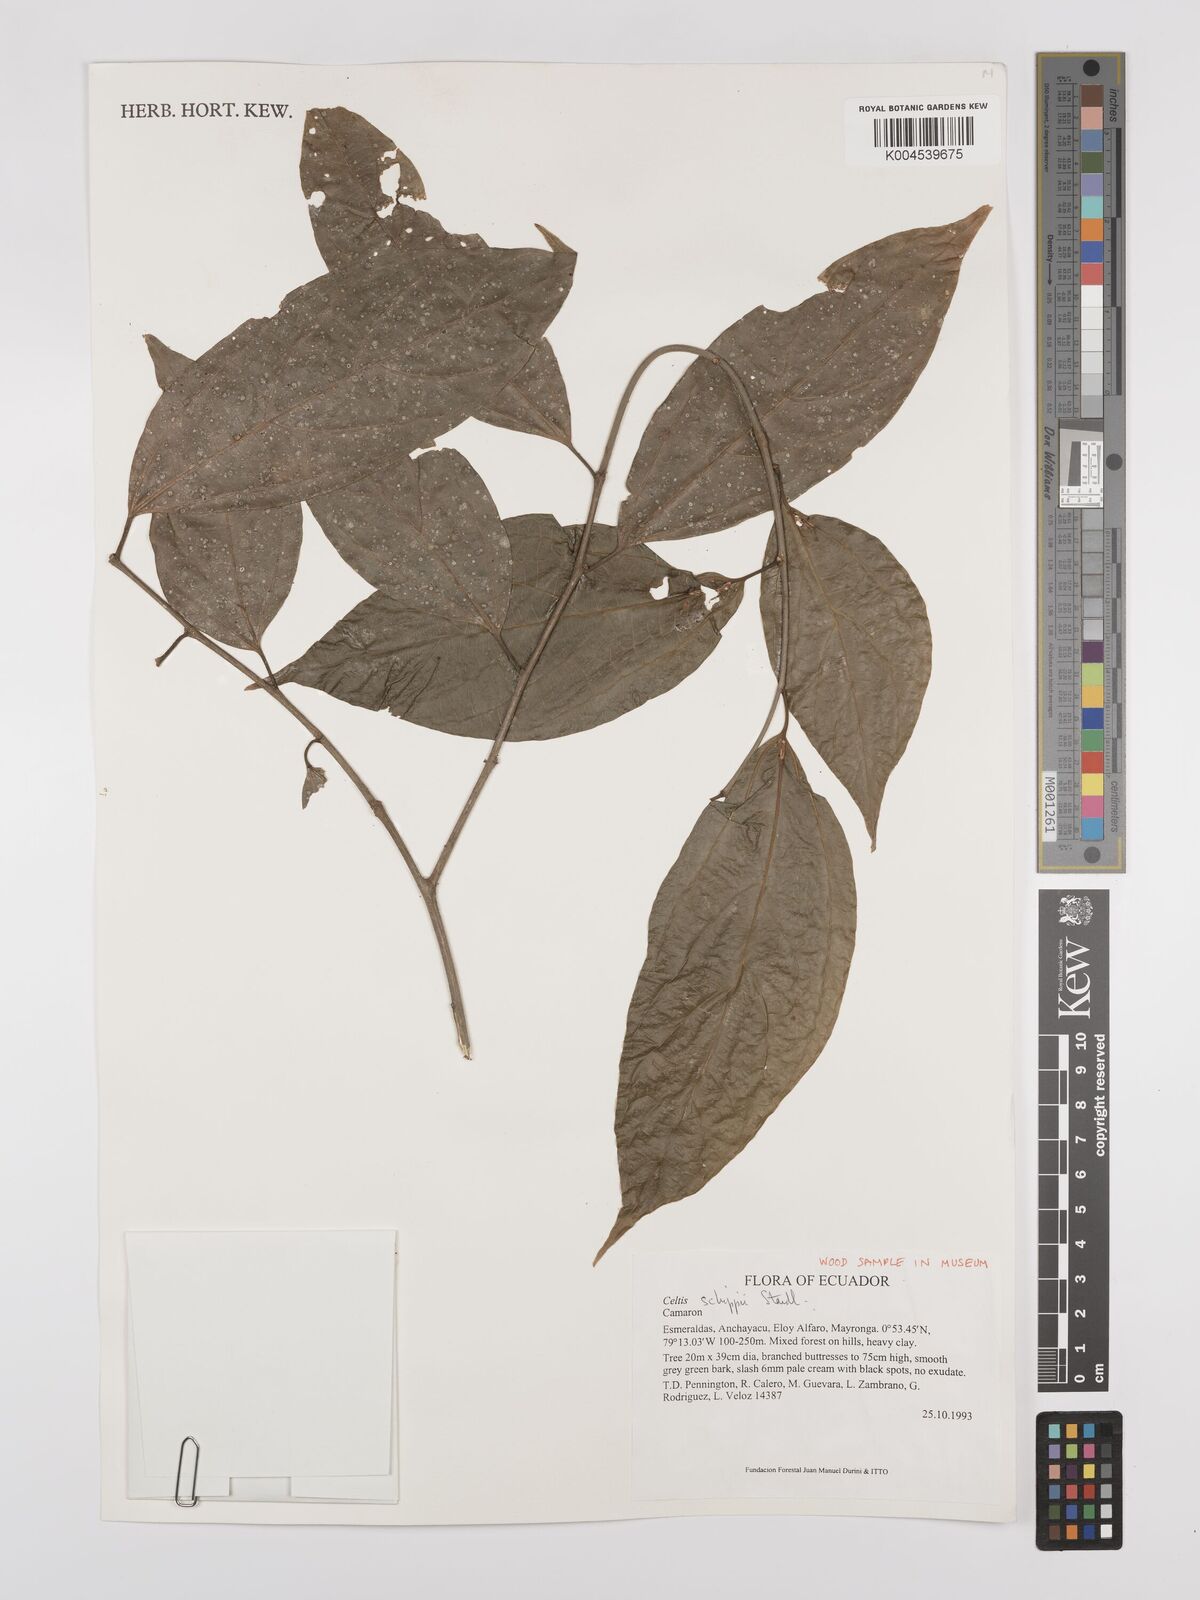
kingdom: Plantae
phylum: Tracheophyta
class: Magnoliopsida
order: Rosales
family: Cannabaceae
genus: Celtis
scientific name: Celtis schippii
